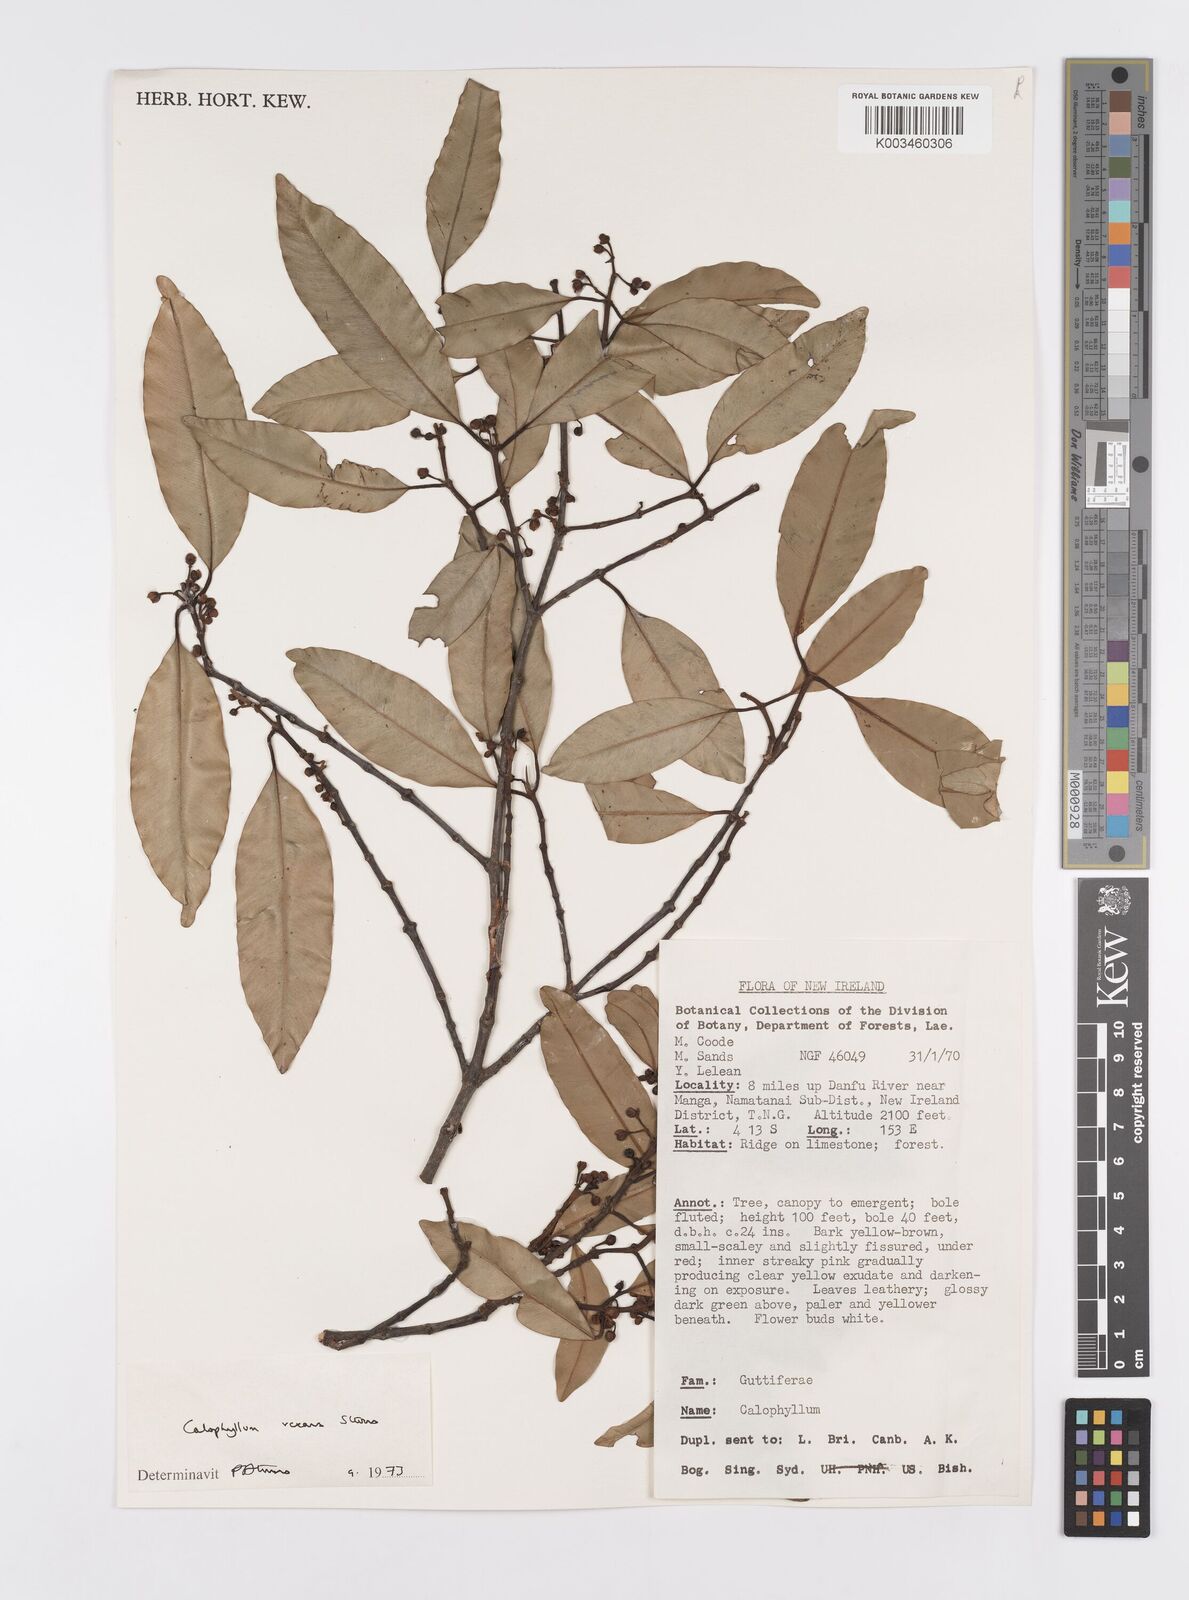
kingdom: Plantae
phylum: Tracheophyta
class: Magnoliopsida
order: Malpighiales
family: Calophyllaceae
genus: Calophyllum
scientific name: Calophyllum vexans
